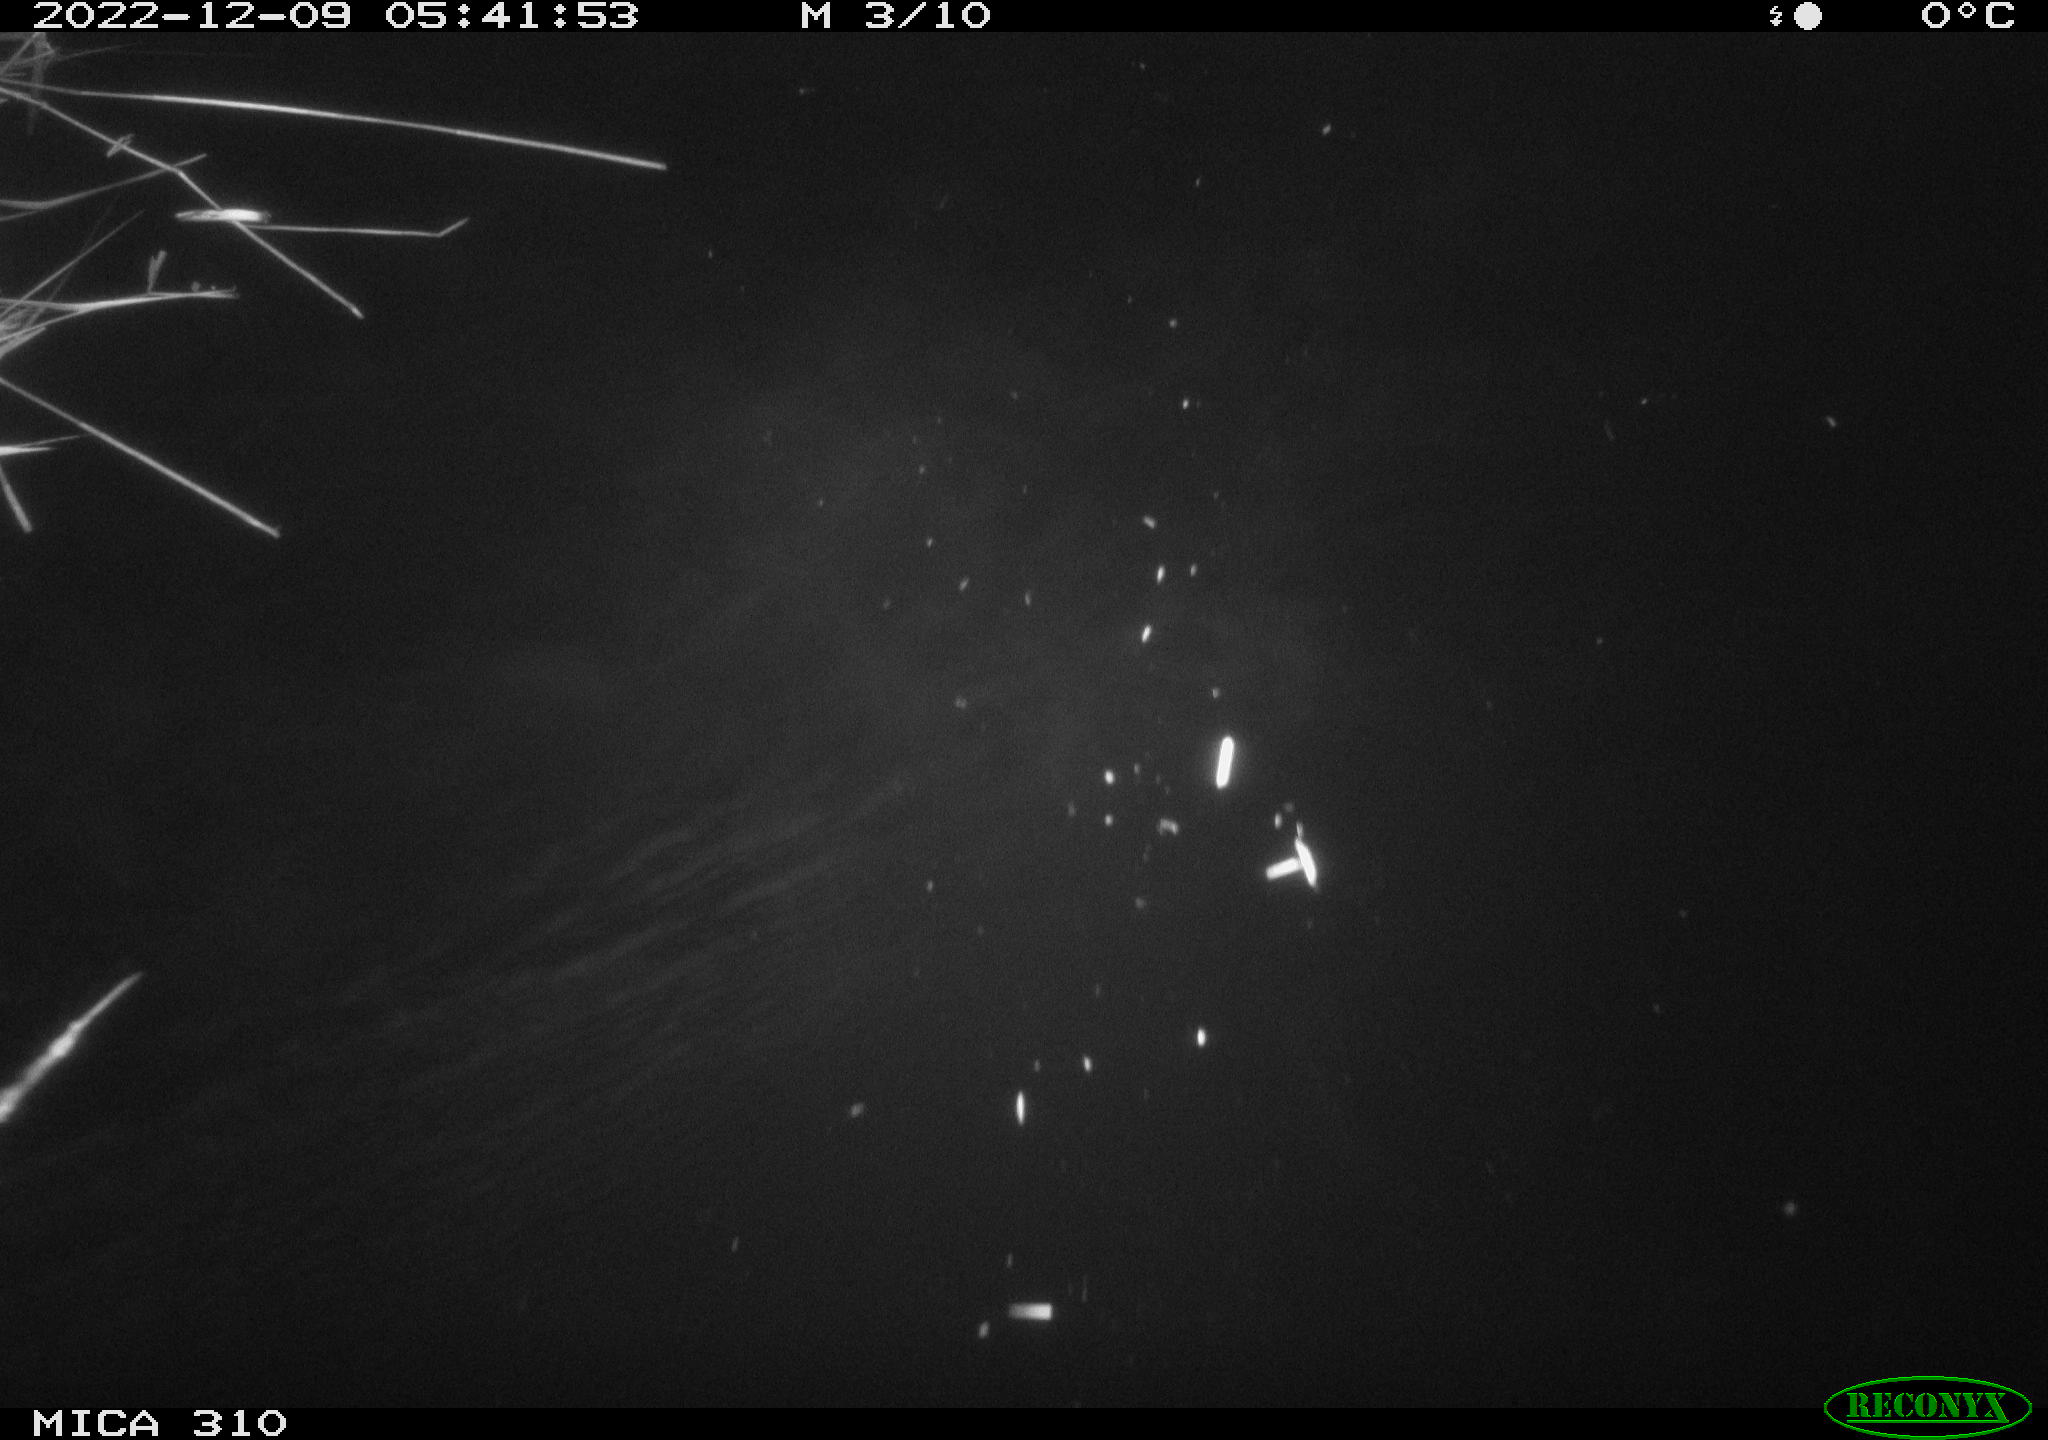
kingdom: Animalia
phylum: Chordata
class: Mammalia
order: Rodentia
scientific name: Rodentia
